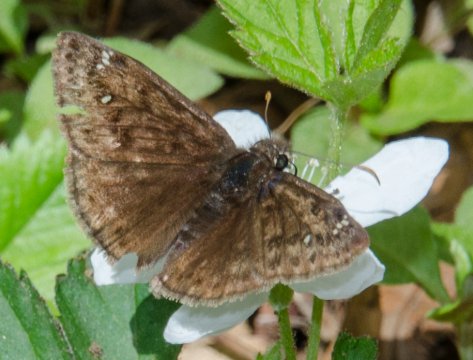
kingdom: Animalia
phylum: Arthropoda
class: Insecta
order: Lepidoptera
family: Hesperiidae
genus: Gesta
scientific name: Gesta
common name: Juvenal's Duskywing
